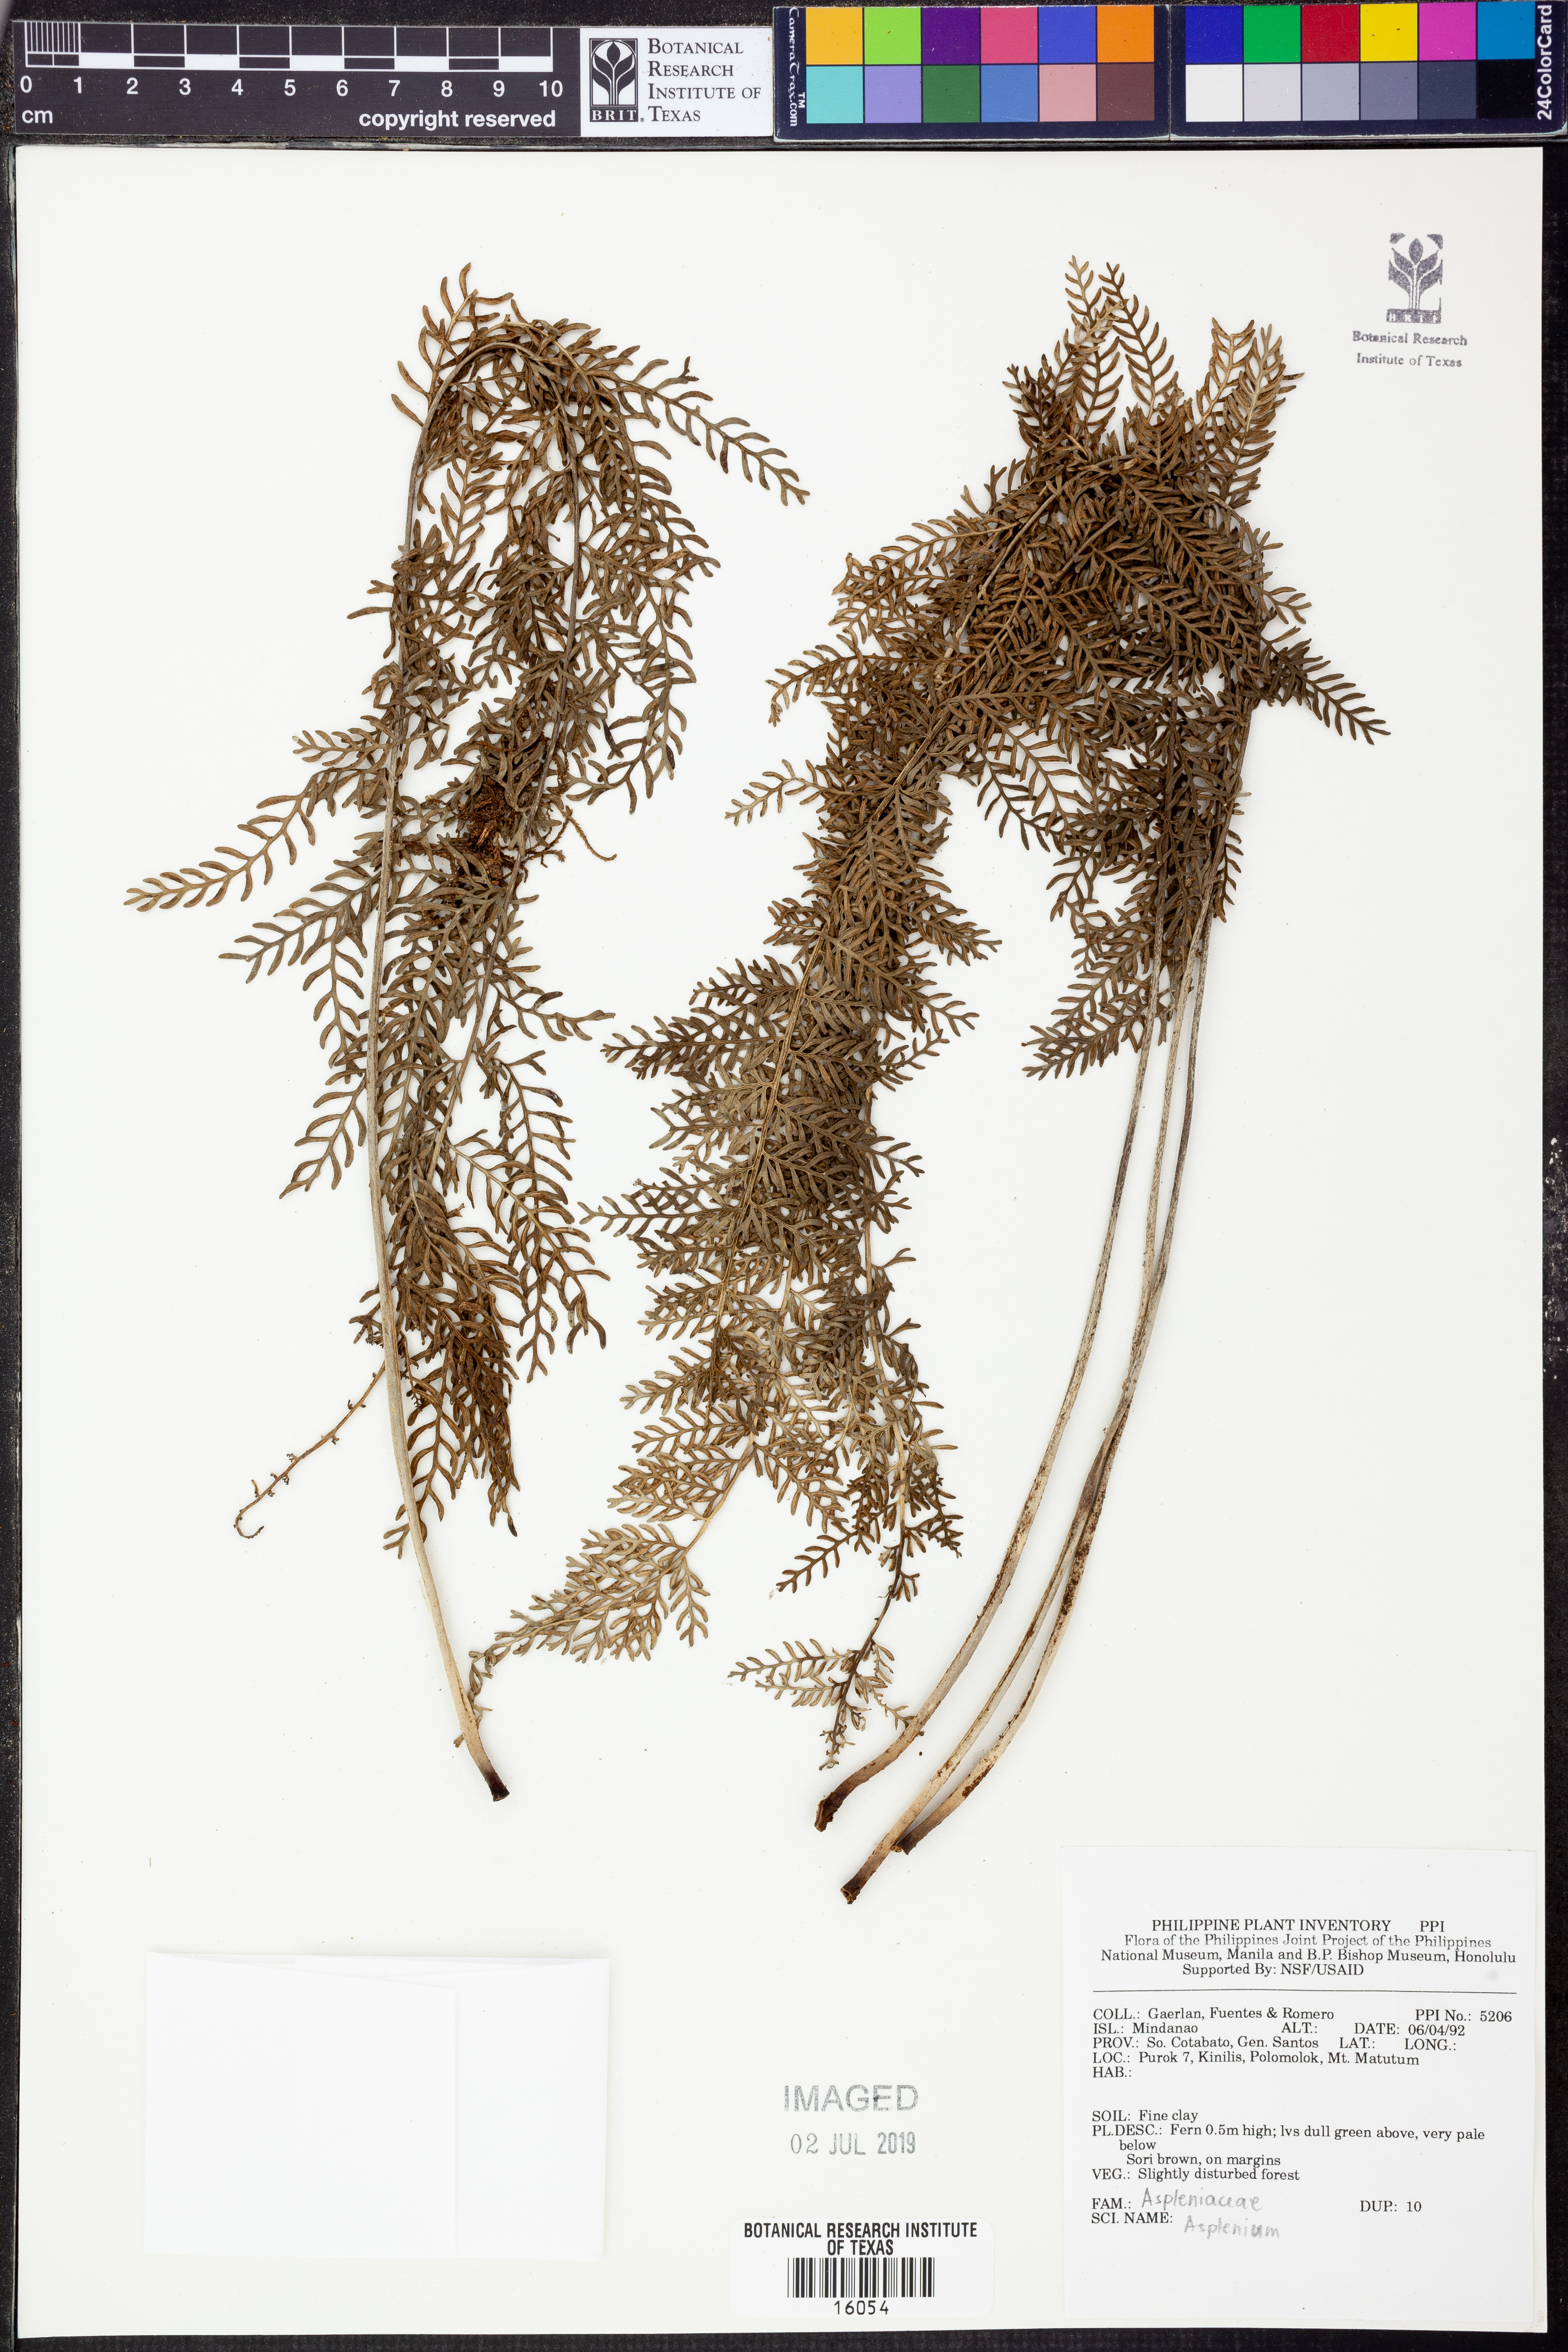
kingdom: Plantae
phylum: Tracheophyta
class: Polypodiopsida
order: Polypodiales
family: Aspleniaceae
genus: Asplenium
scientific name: Asplenium
